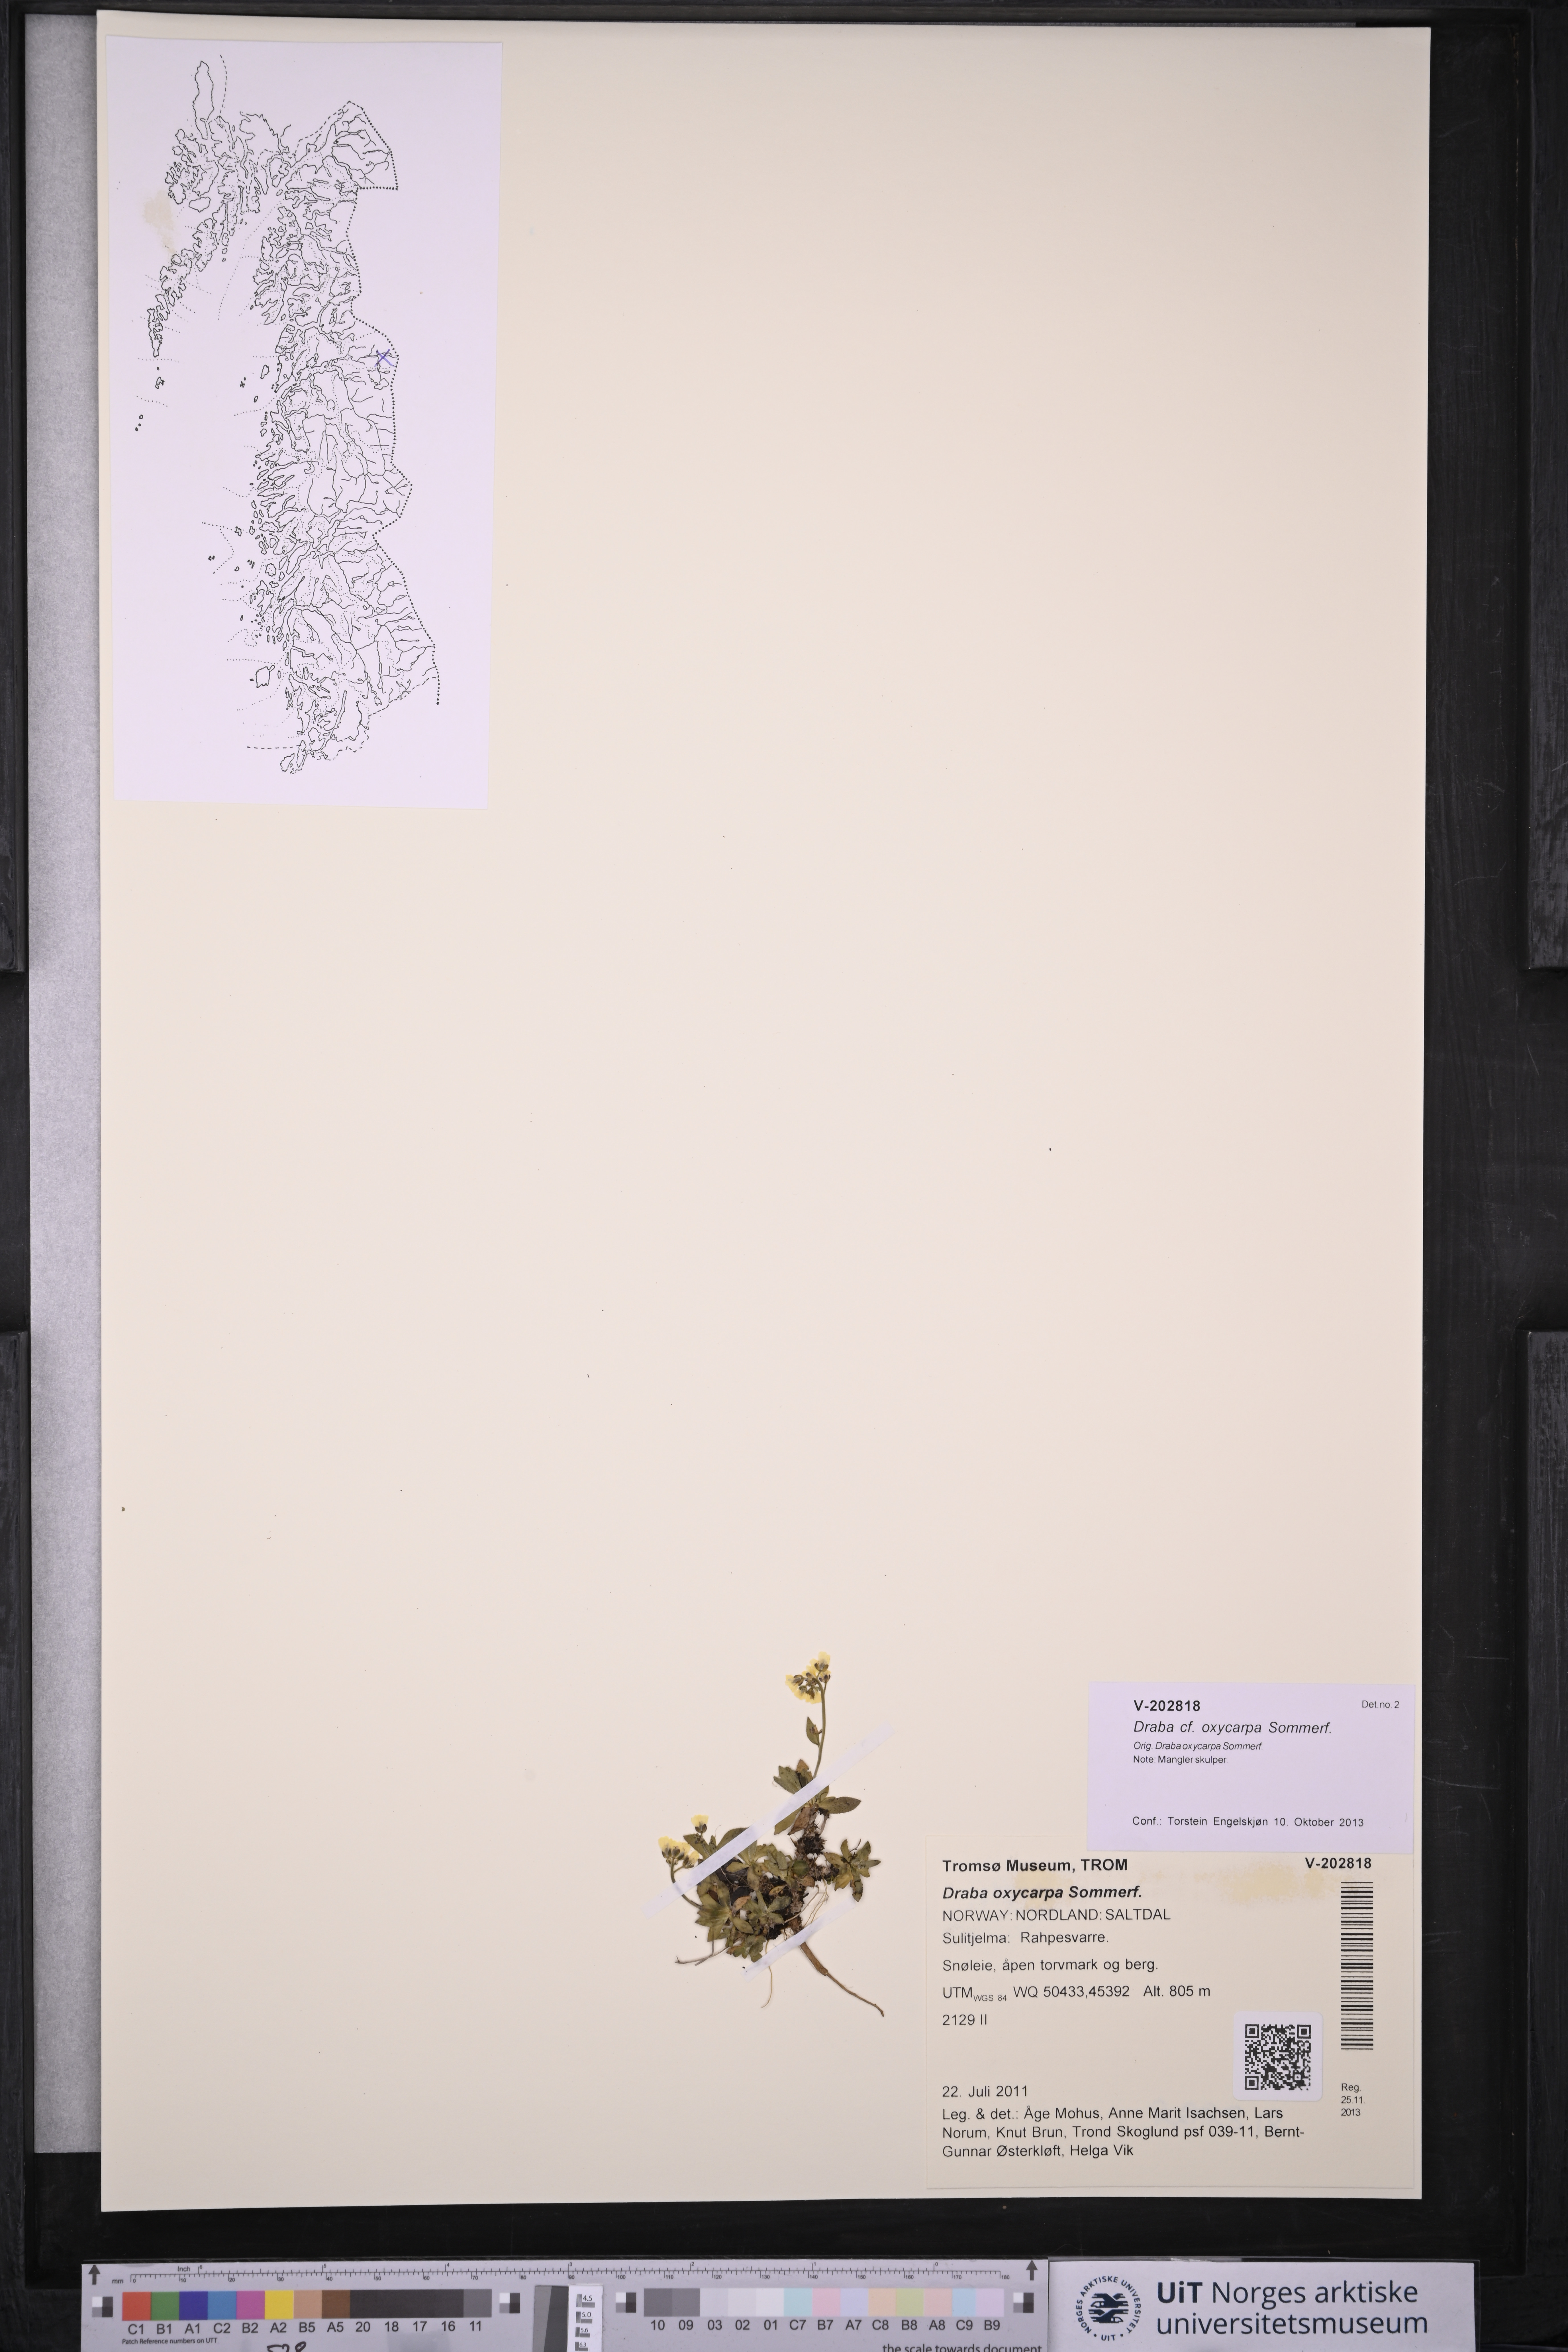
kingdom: Plantae
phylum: Tracheophyta
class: Magnoliopsida
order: Brassicales
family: Brassicaceae
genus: Draba
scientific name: Draba oxycarpa
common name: Sharp-fruited whitlow-grass
